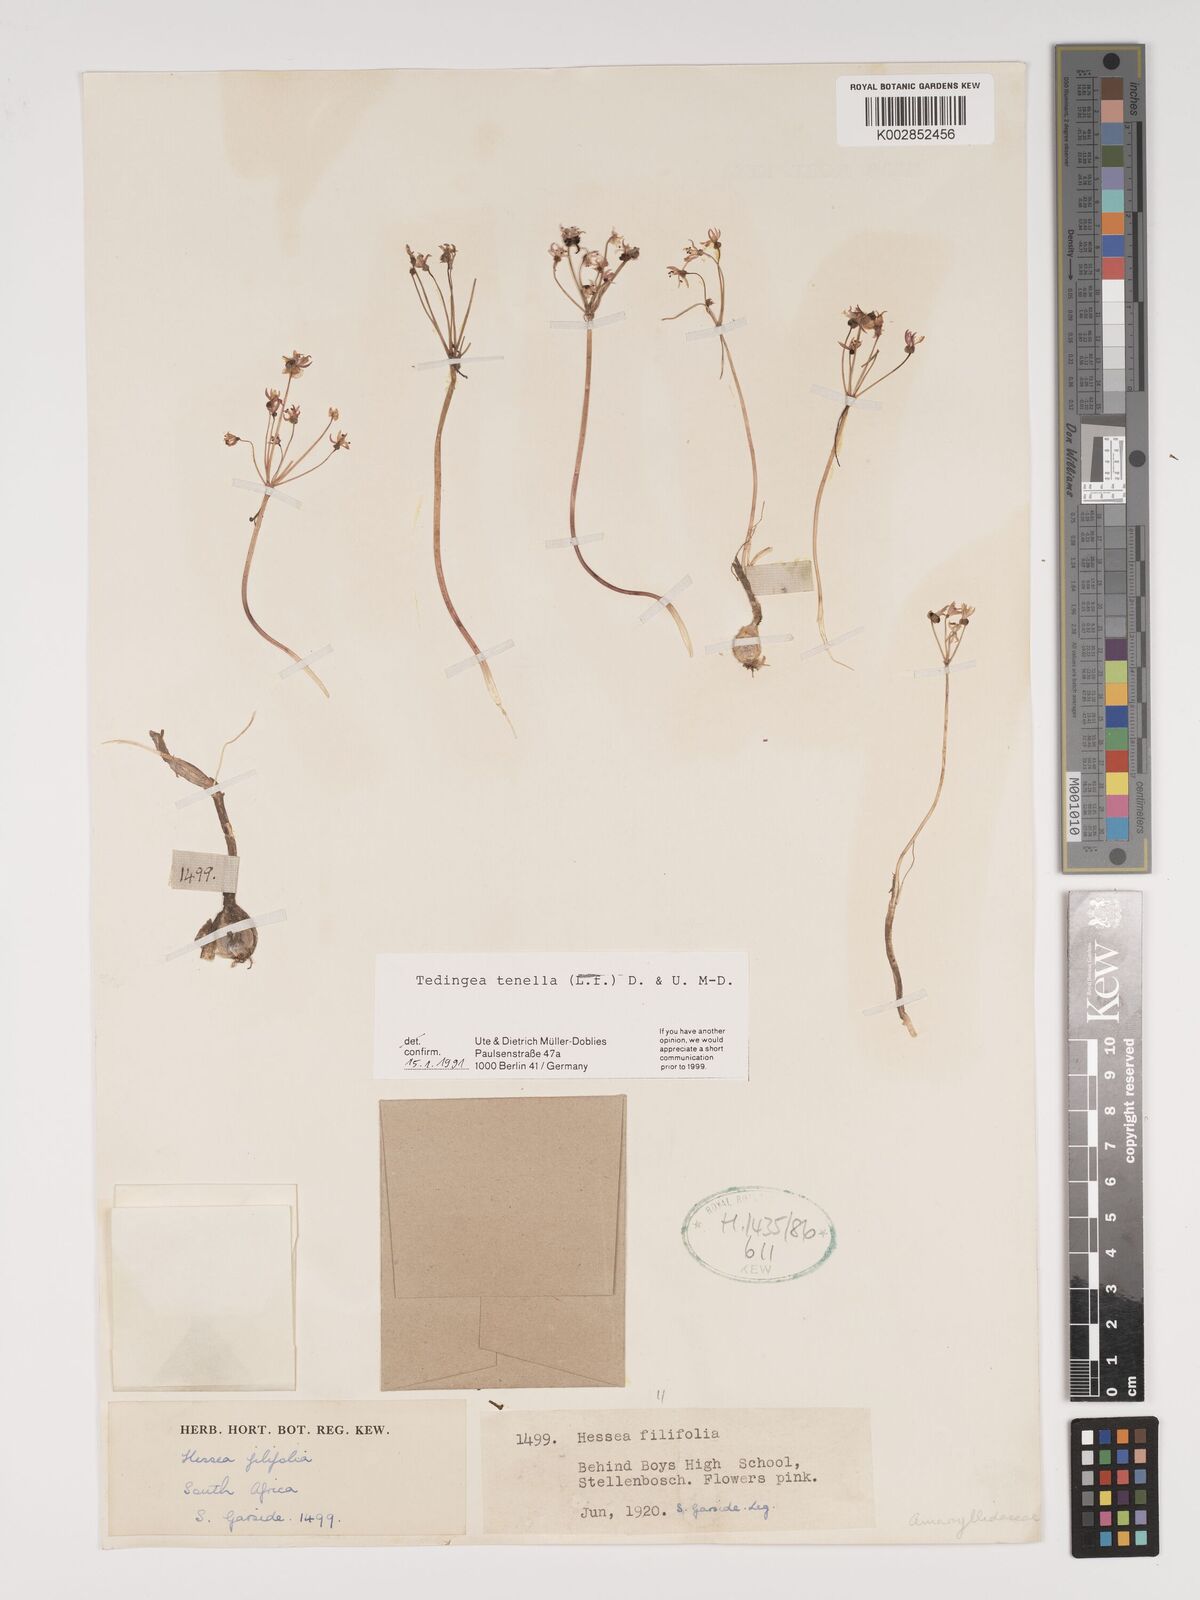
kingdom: Plantae
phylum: Tracheophyta
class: Liliopsida
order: Asparagales
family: Amaryllidaceae
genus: Strumaria
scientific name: Strumaria tenella
